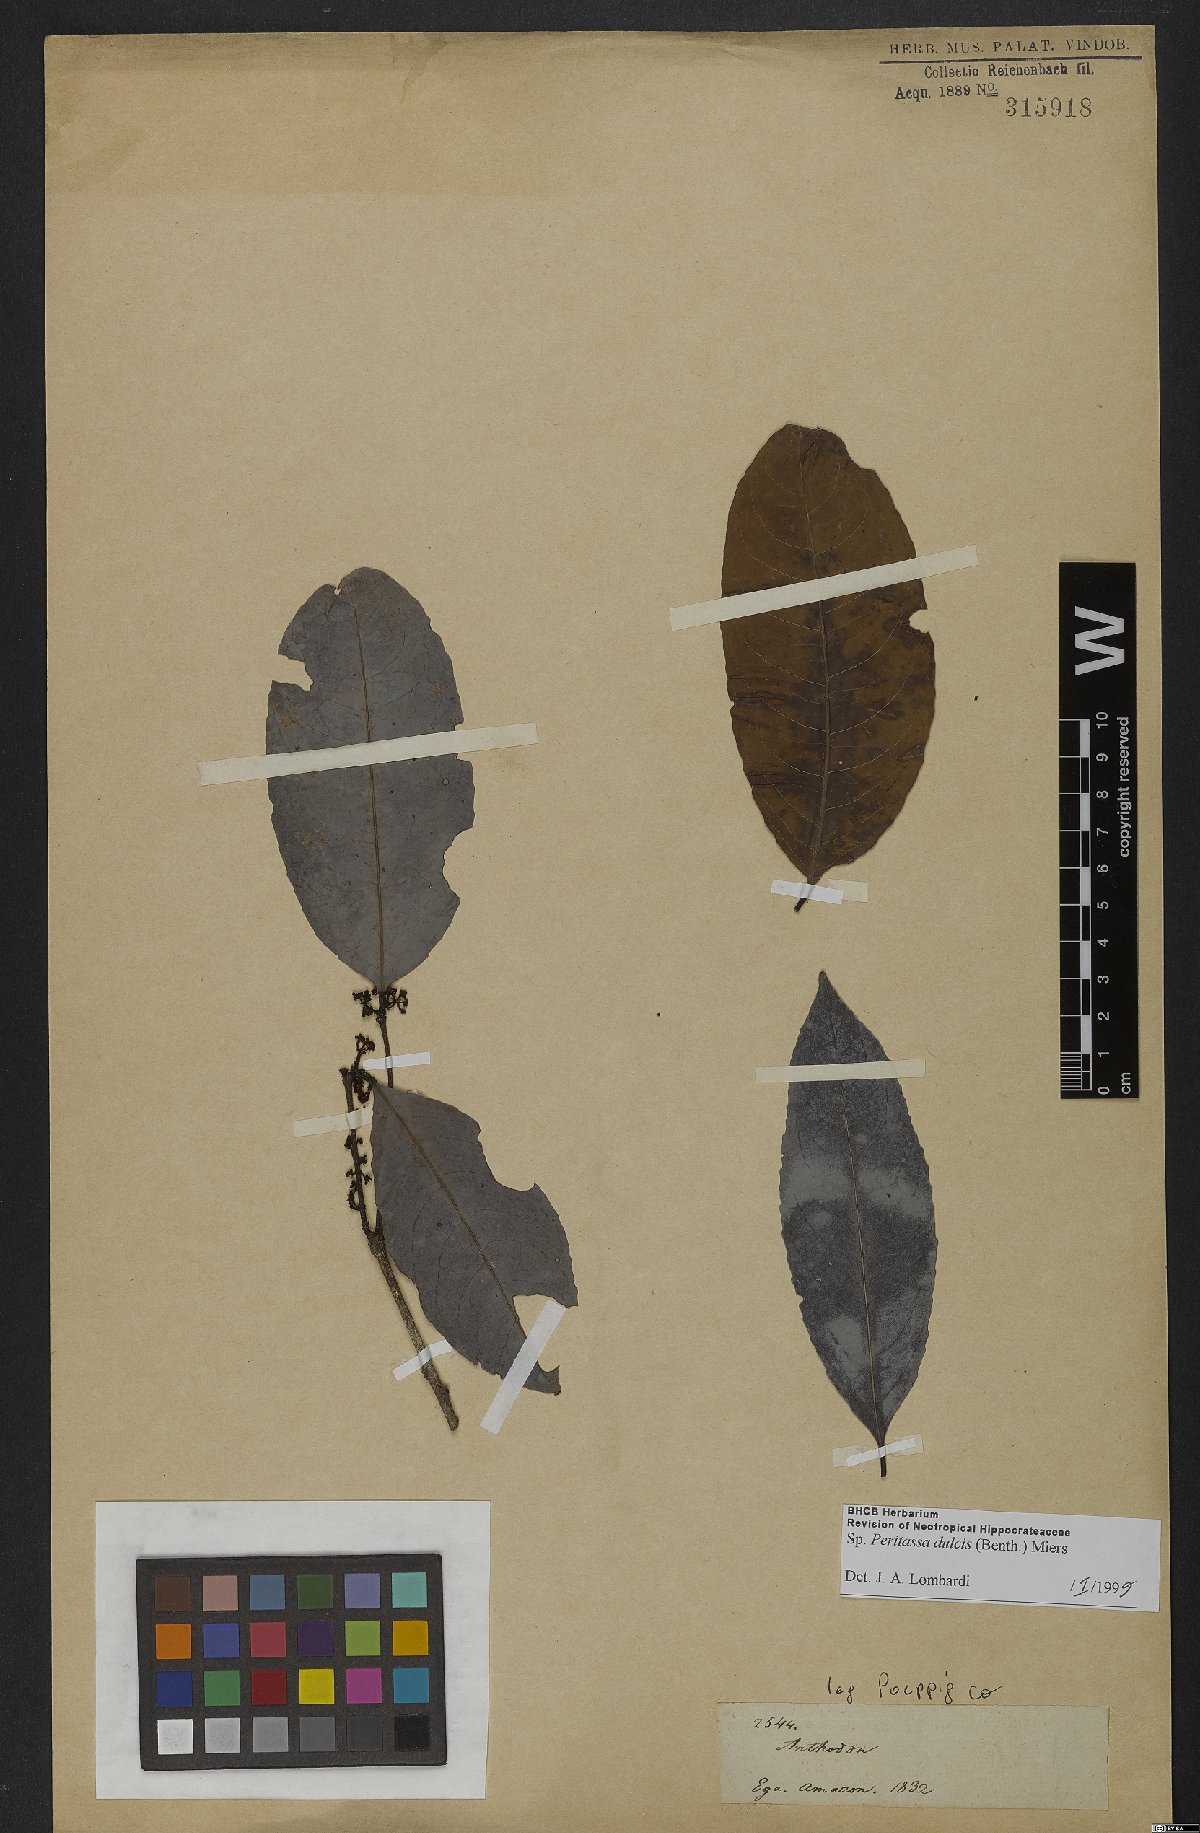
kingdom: Plantae
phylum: Tracheophyta
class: Magnoliopsida
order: Celastrales
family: Celastraceae
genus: Peritassa
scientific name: Peritassa dulcis
